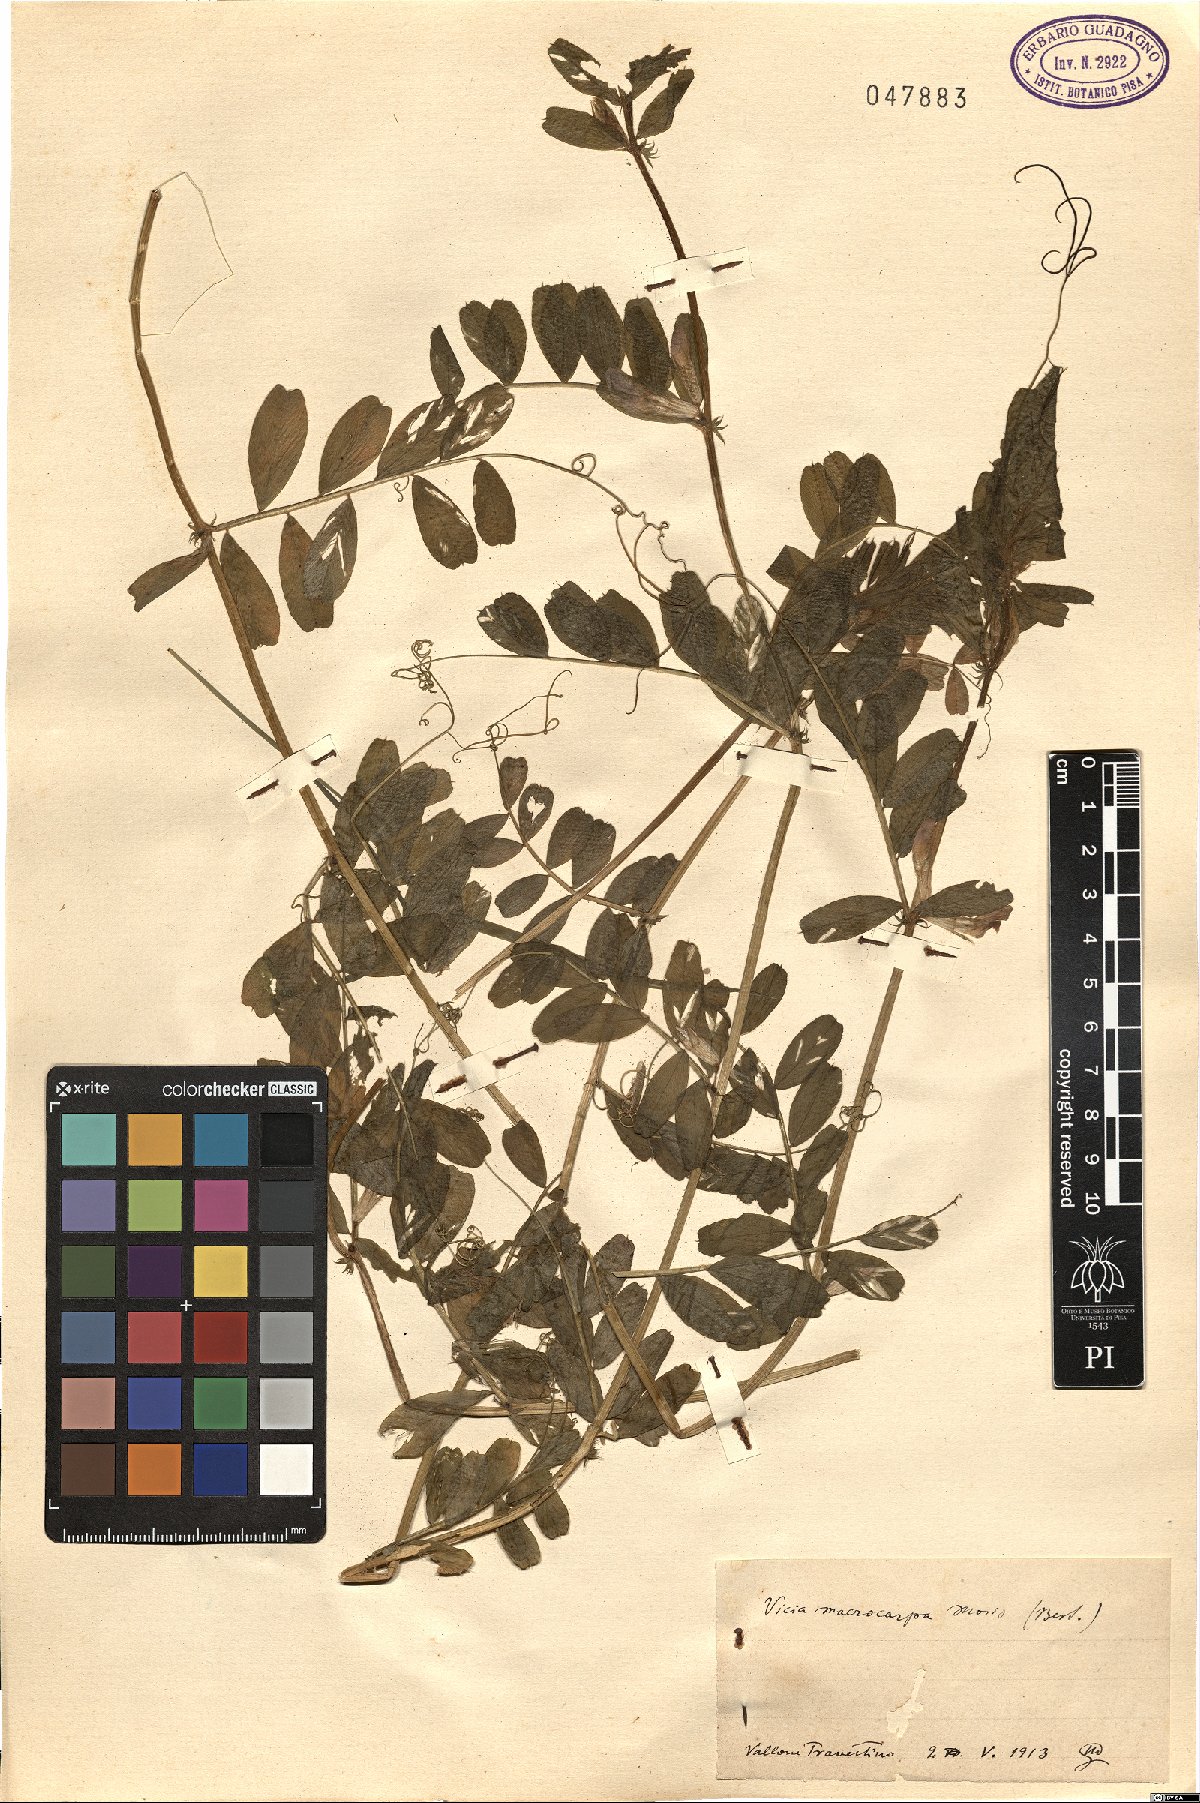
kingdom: Plantae
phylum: Tracheophyta
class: Magnoliopsida
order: Fabales
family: Fabaceae
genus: Vicia
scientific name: Vicia sativa
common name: Garden vetch
